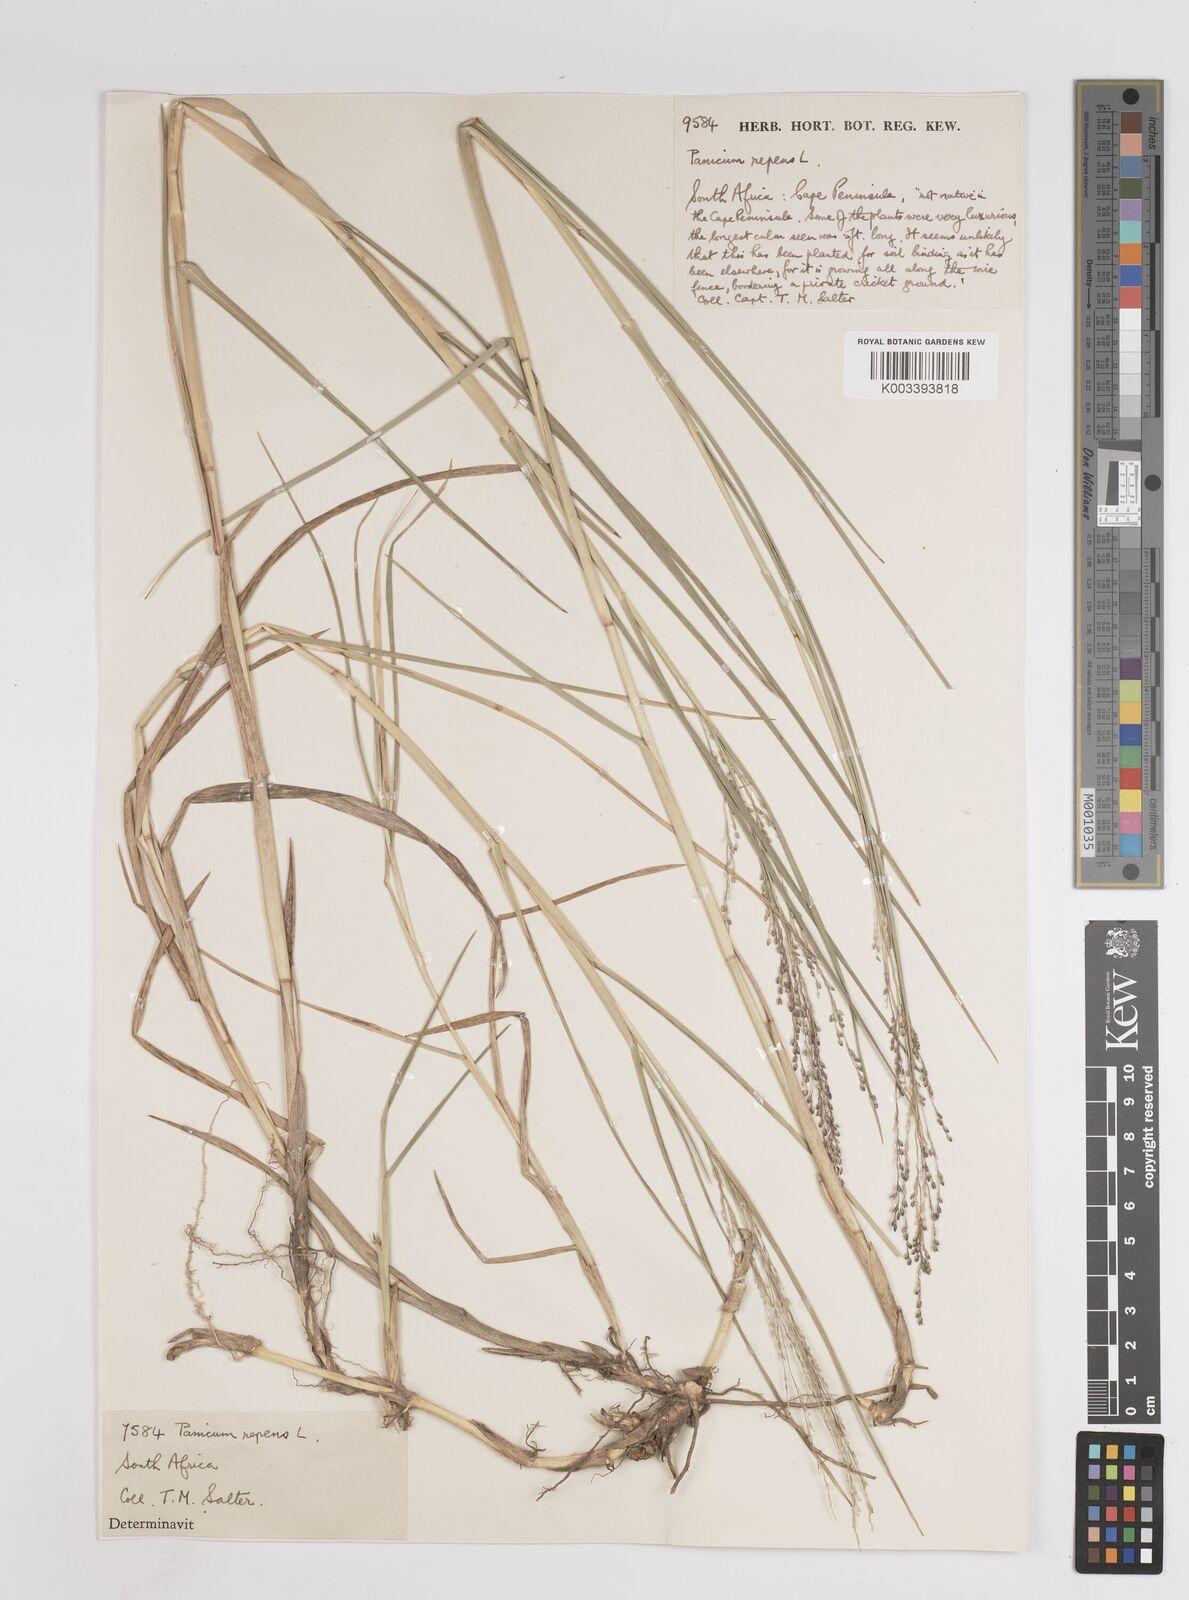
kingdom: Plantae
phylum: Tracheophyta
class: Liliopsida
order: Poales
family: Poaceae
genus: Panicum
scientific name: Panicum repens
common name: Torpedo grass
